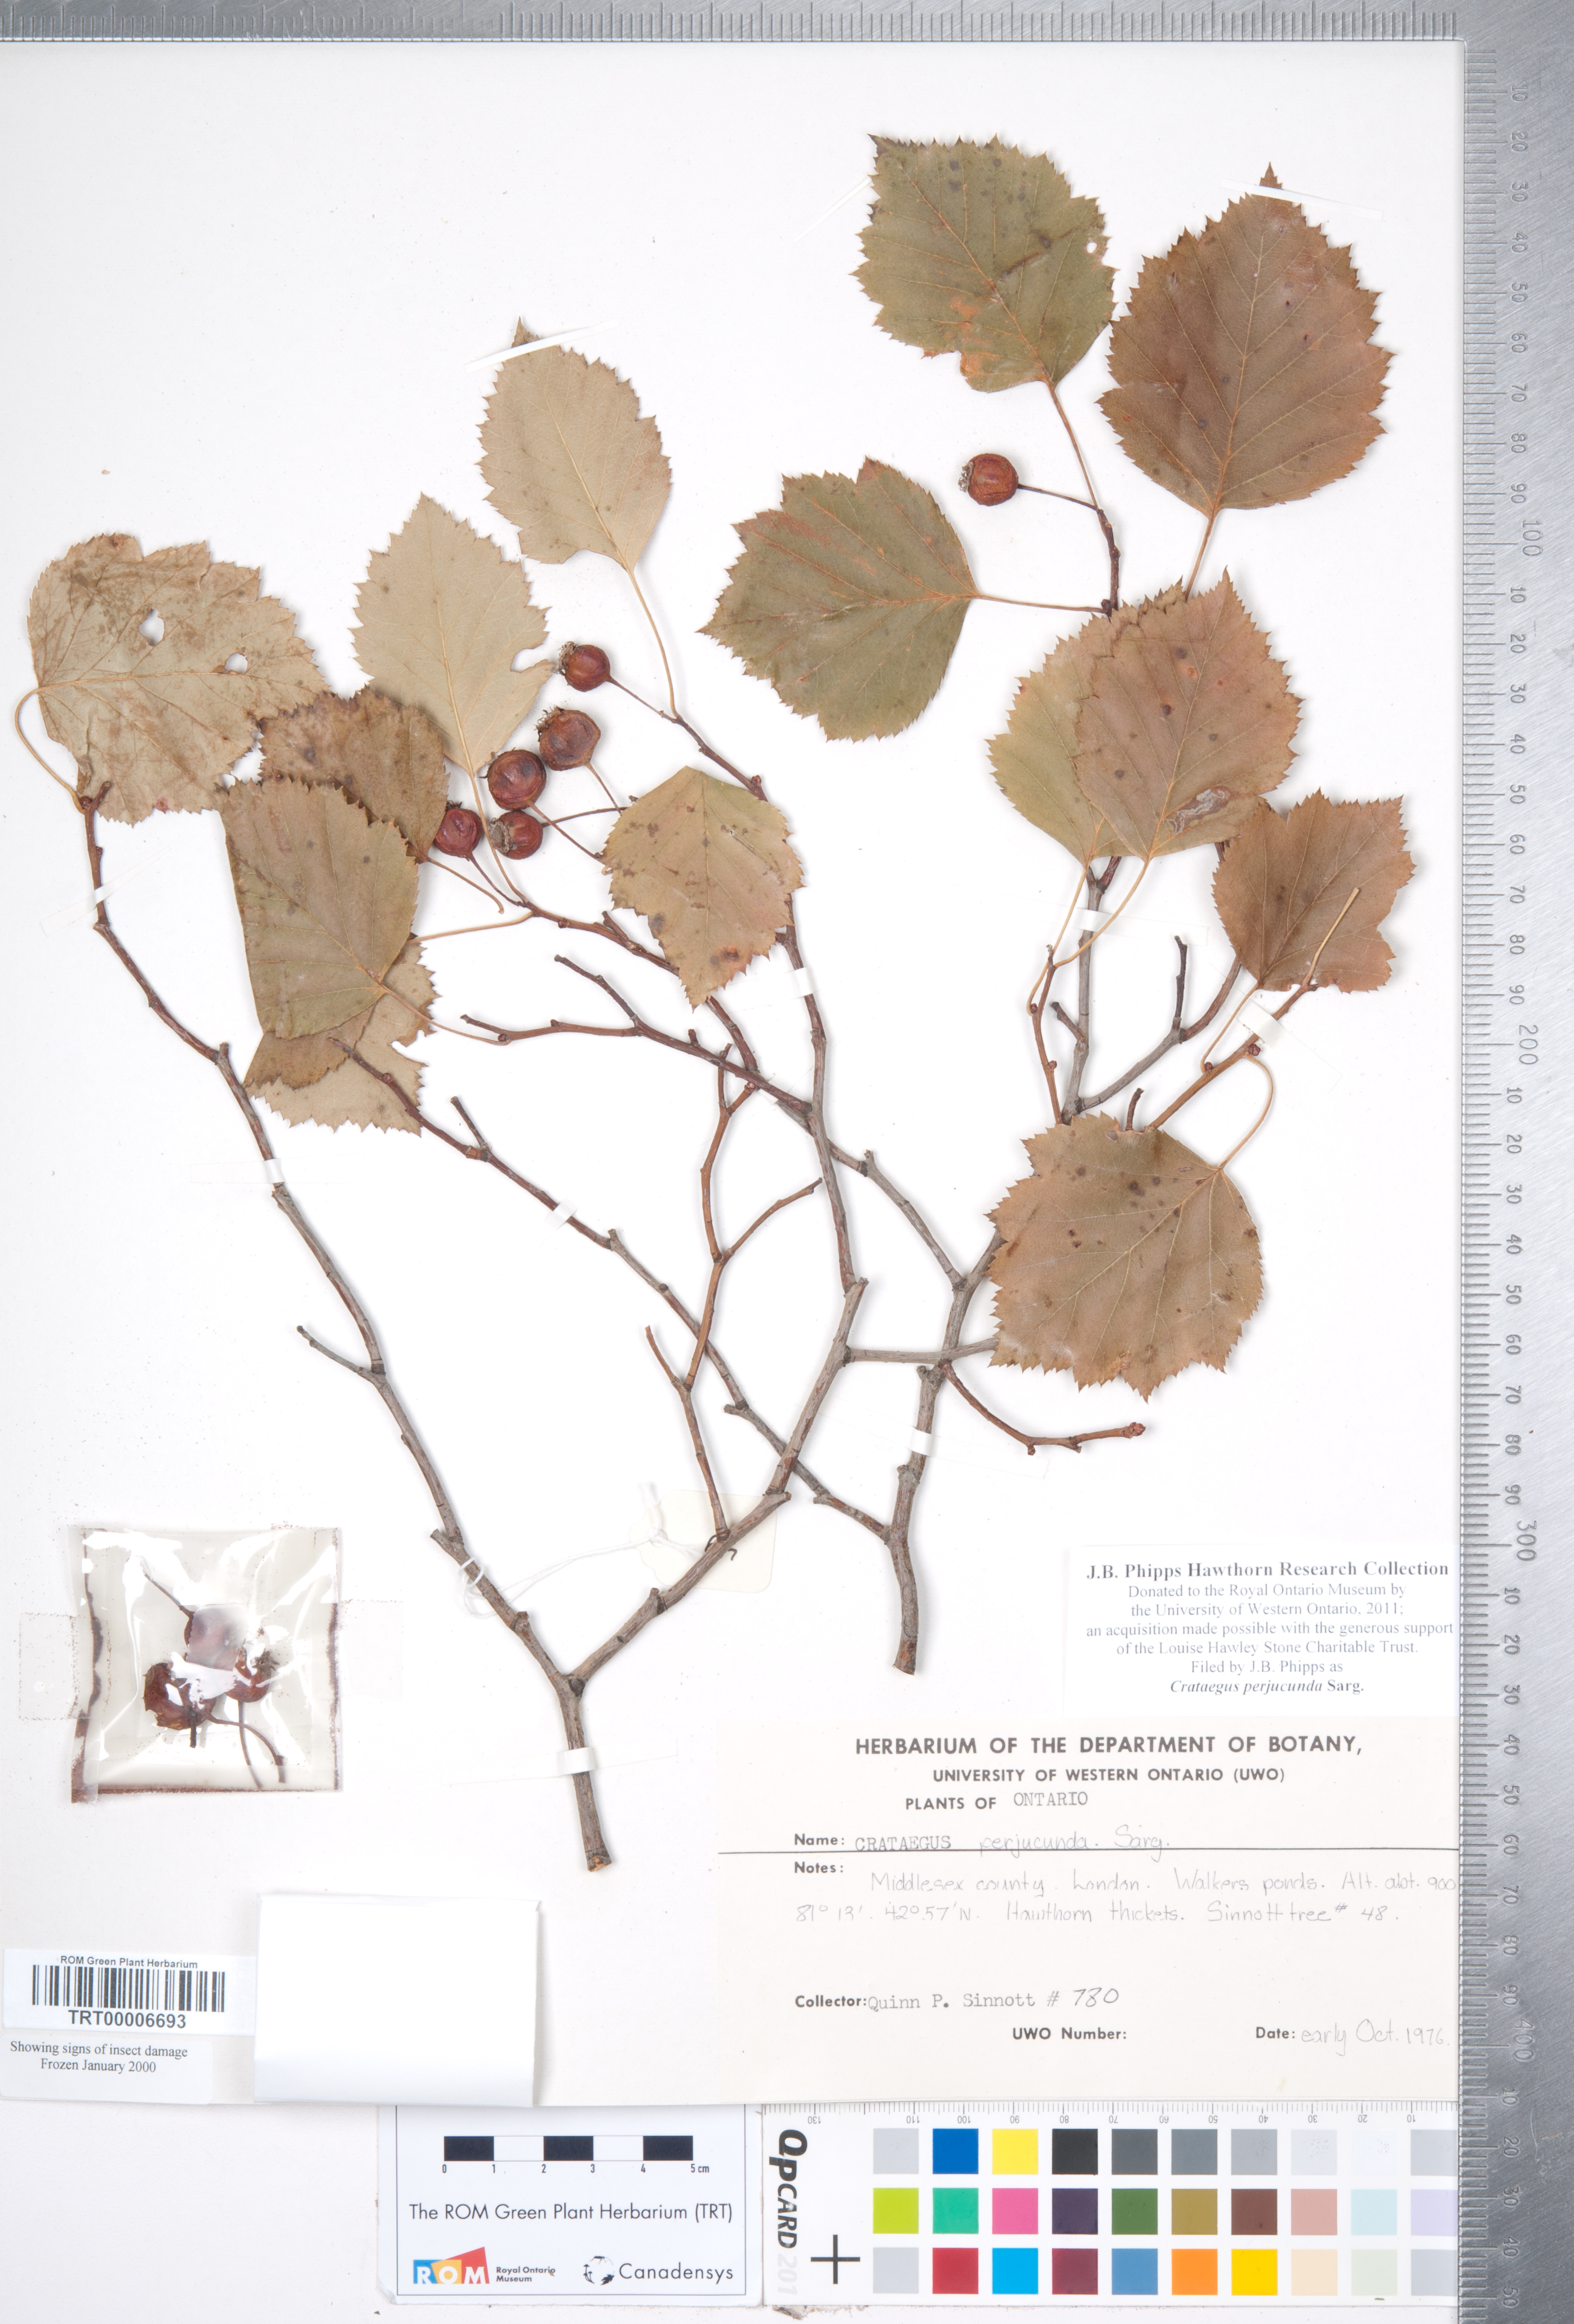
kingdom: Plantae
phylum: Tracheophyta
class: Magnoliopsida
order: Rosales
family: Rosaceae
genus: Crataegus
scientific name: Crataegus cognata
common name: Cognate hawthorn
